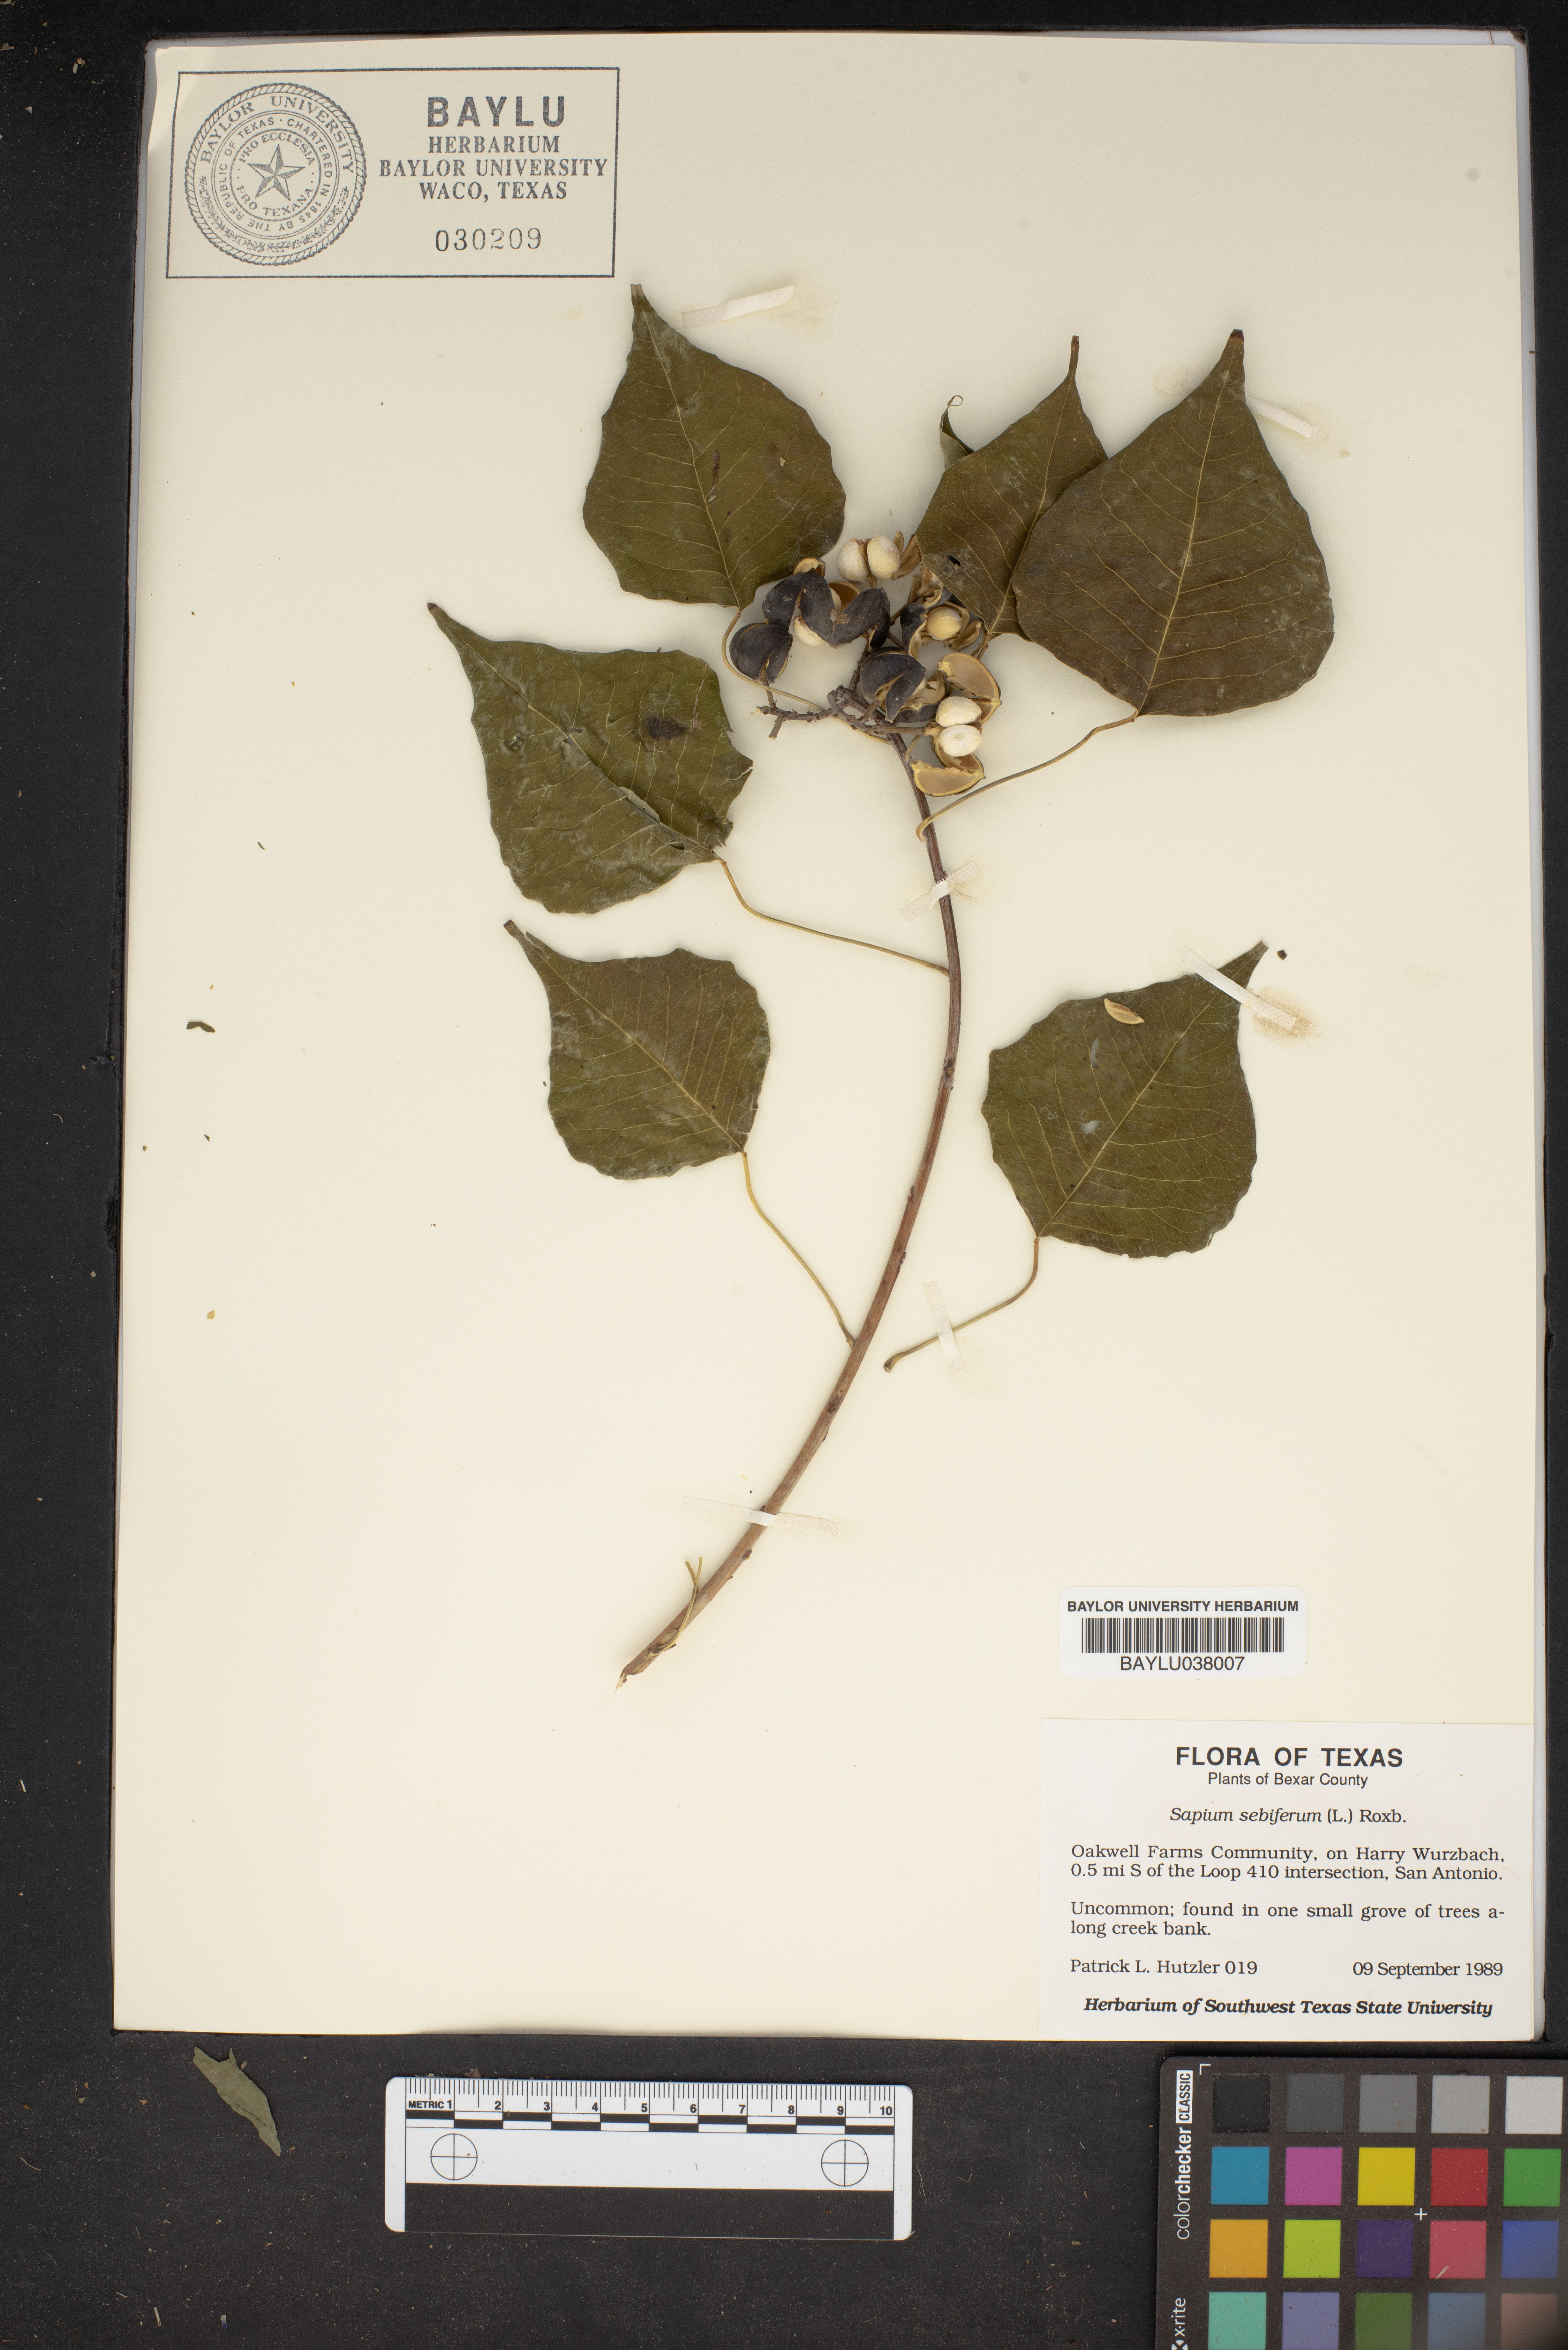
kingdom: Plantae
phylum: Tracheophyta
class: Magnoliopsida
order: Malpighiales
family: Euphorbiaceae
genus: Triadica
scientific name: Triadica sebifera
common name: Chinese tallow
